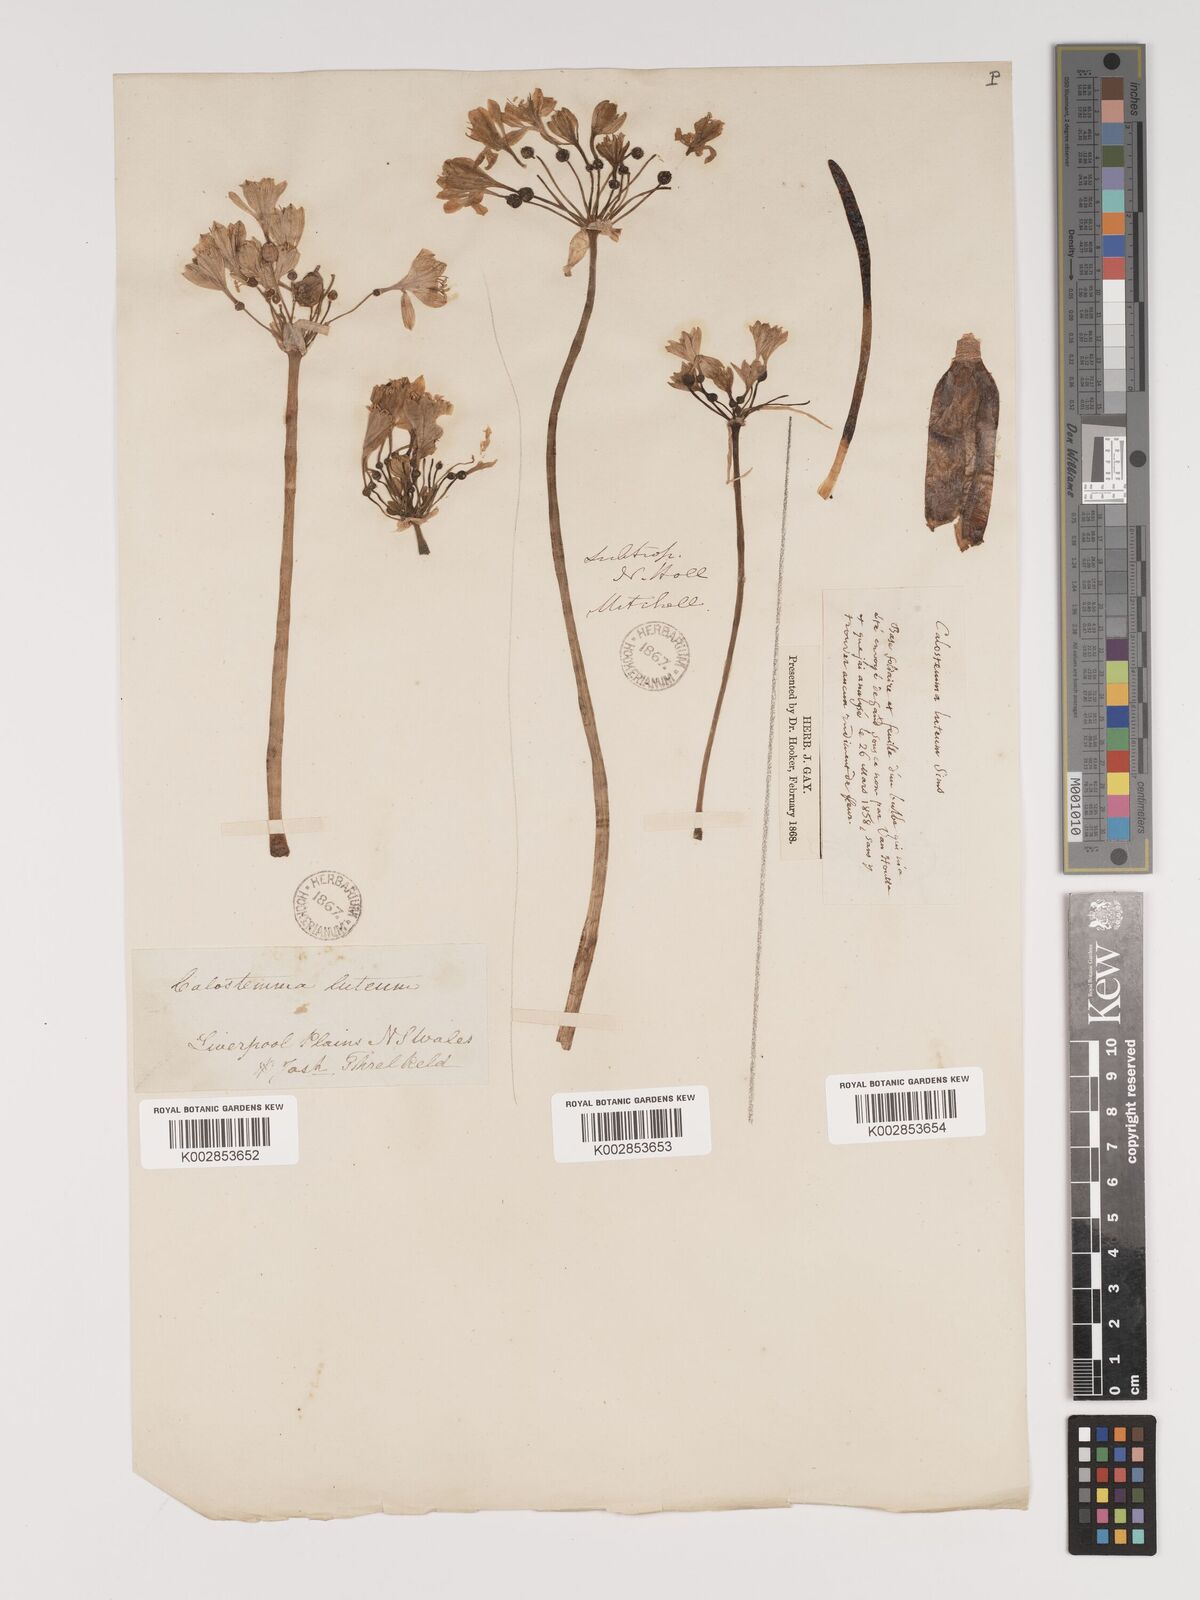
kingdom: Plantae
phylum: Tracheophyta
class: Liliopsida
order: Asparagales
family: Amaryllidaceae
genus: Calostemma
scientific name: Calostemma luteum
